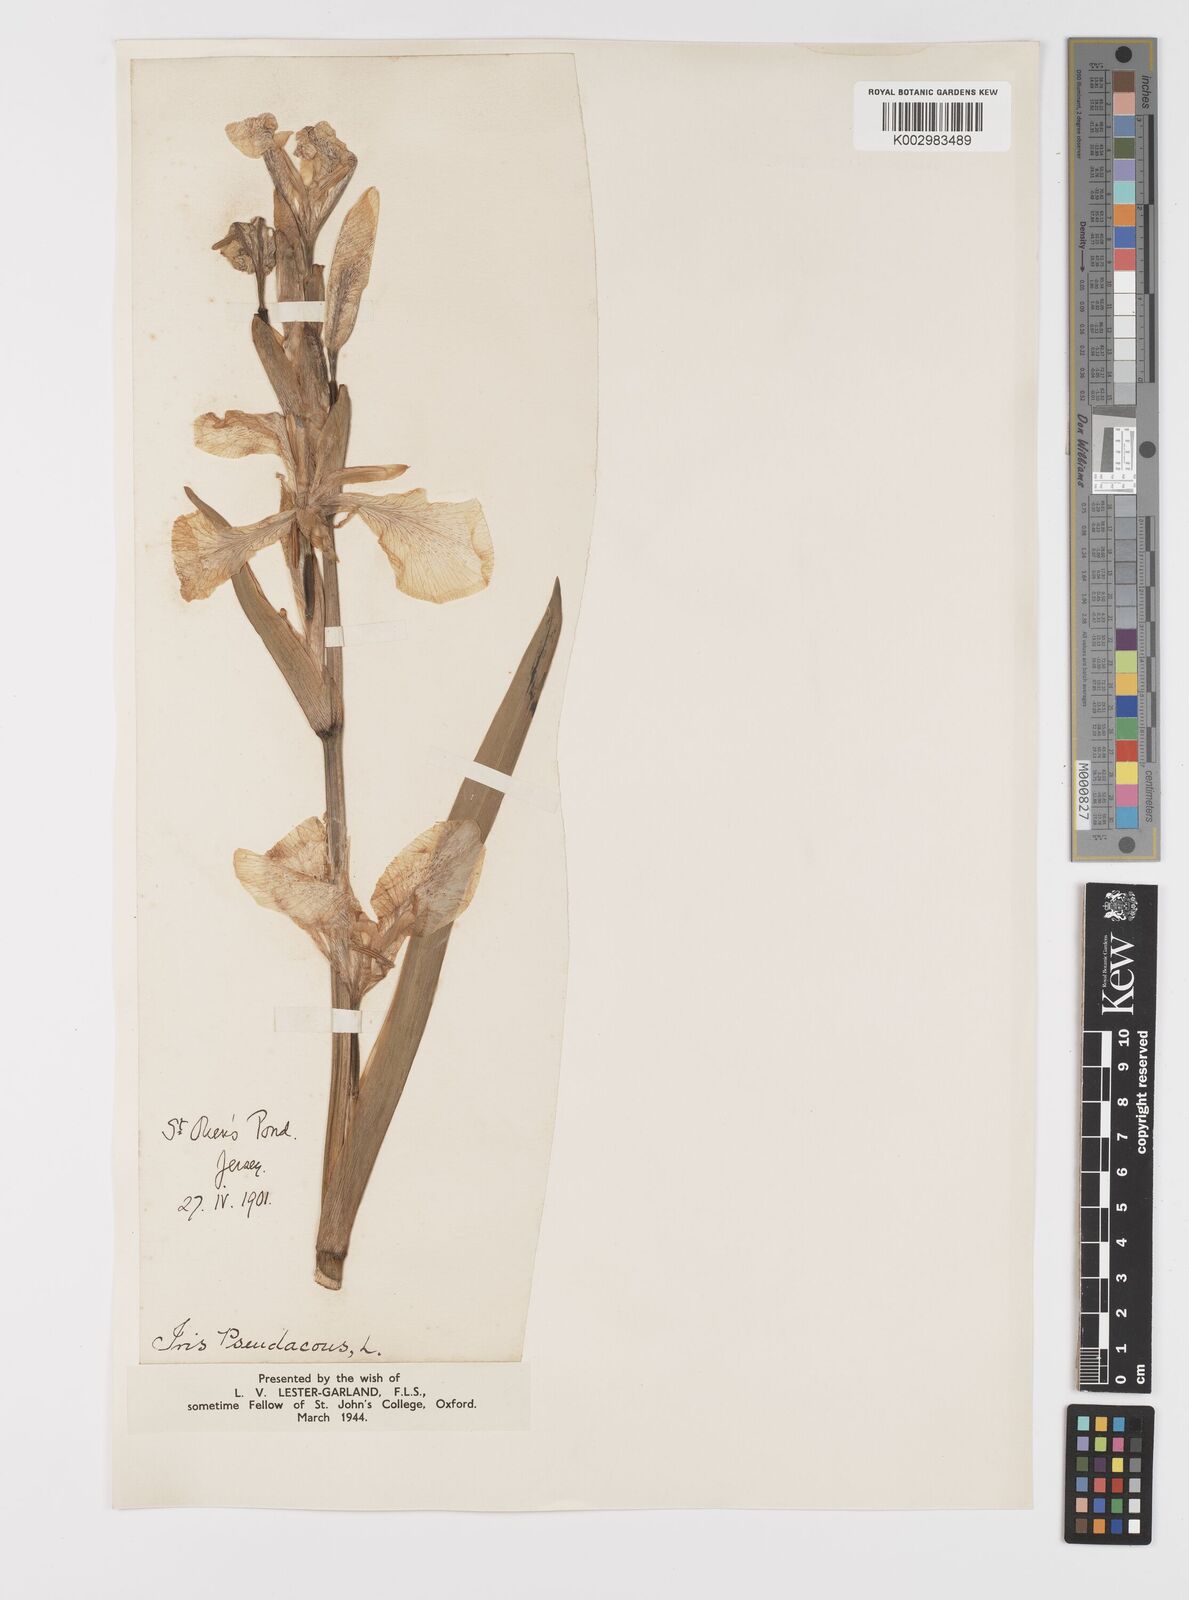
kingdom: Plantae
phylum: Tracheophyta
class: Liliopsida
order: Asparagales
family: Iridaceae
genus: Iris
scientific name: Iris pseudacorus
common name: Yellow flag
